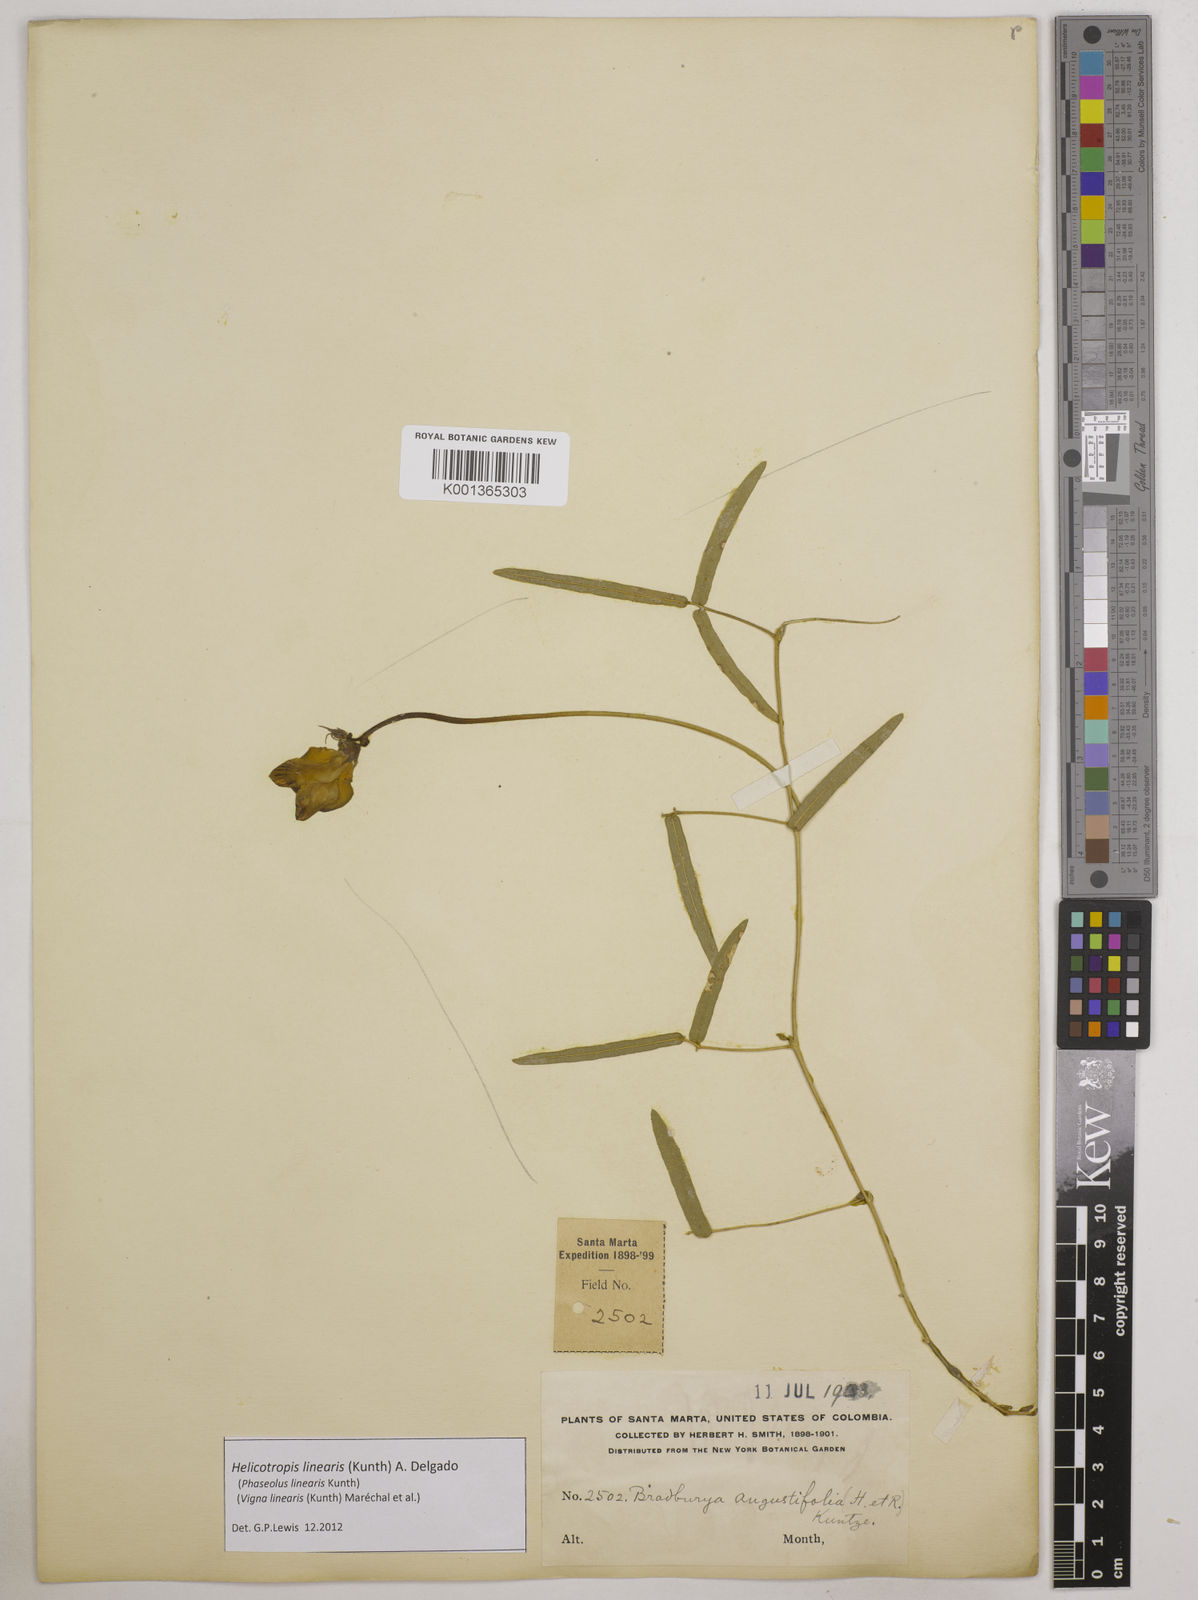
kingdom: Plantae
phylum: Tracheophyta
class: Magnoliopsida
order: Fabales
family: Fabaceae
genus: Helicotropis
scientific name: Helicotropis linearis
